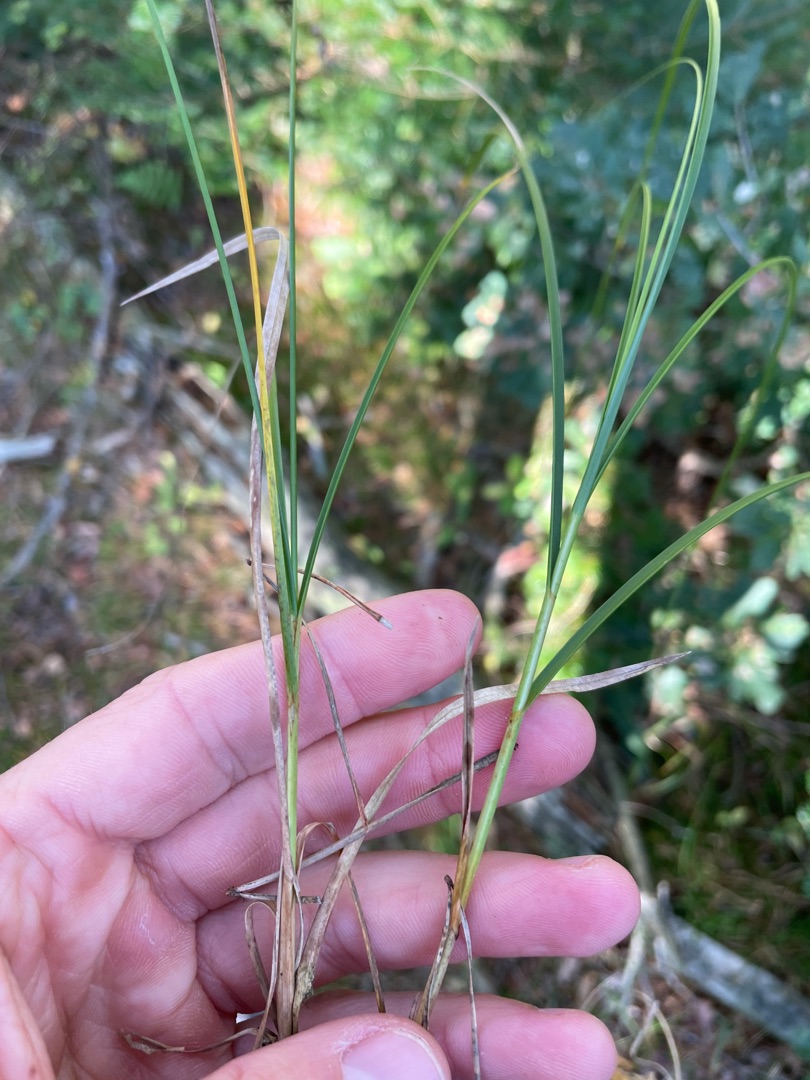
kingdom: Plantae
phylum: Tracheophyta
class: Liliopsida
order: Poales
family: Cyperaceae
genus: Carex
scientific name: Carex arenaria
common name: Sand-star
